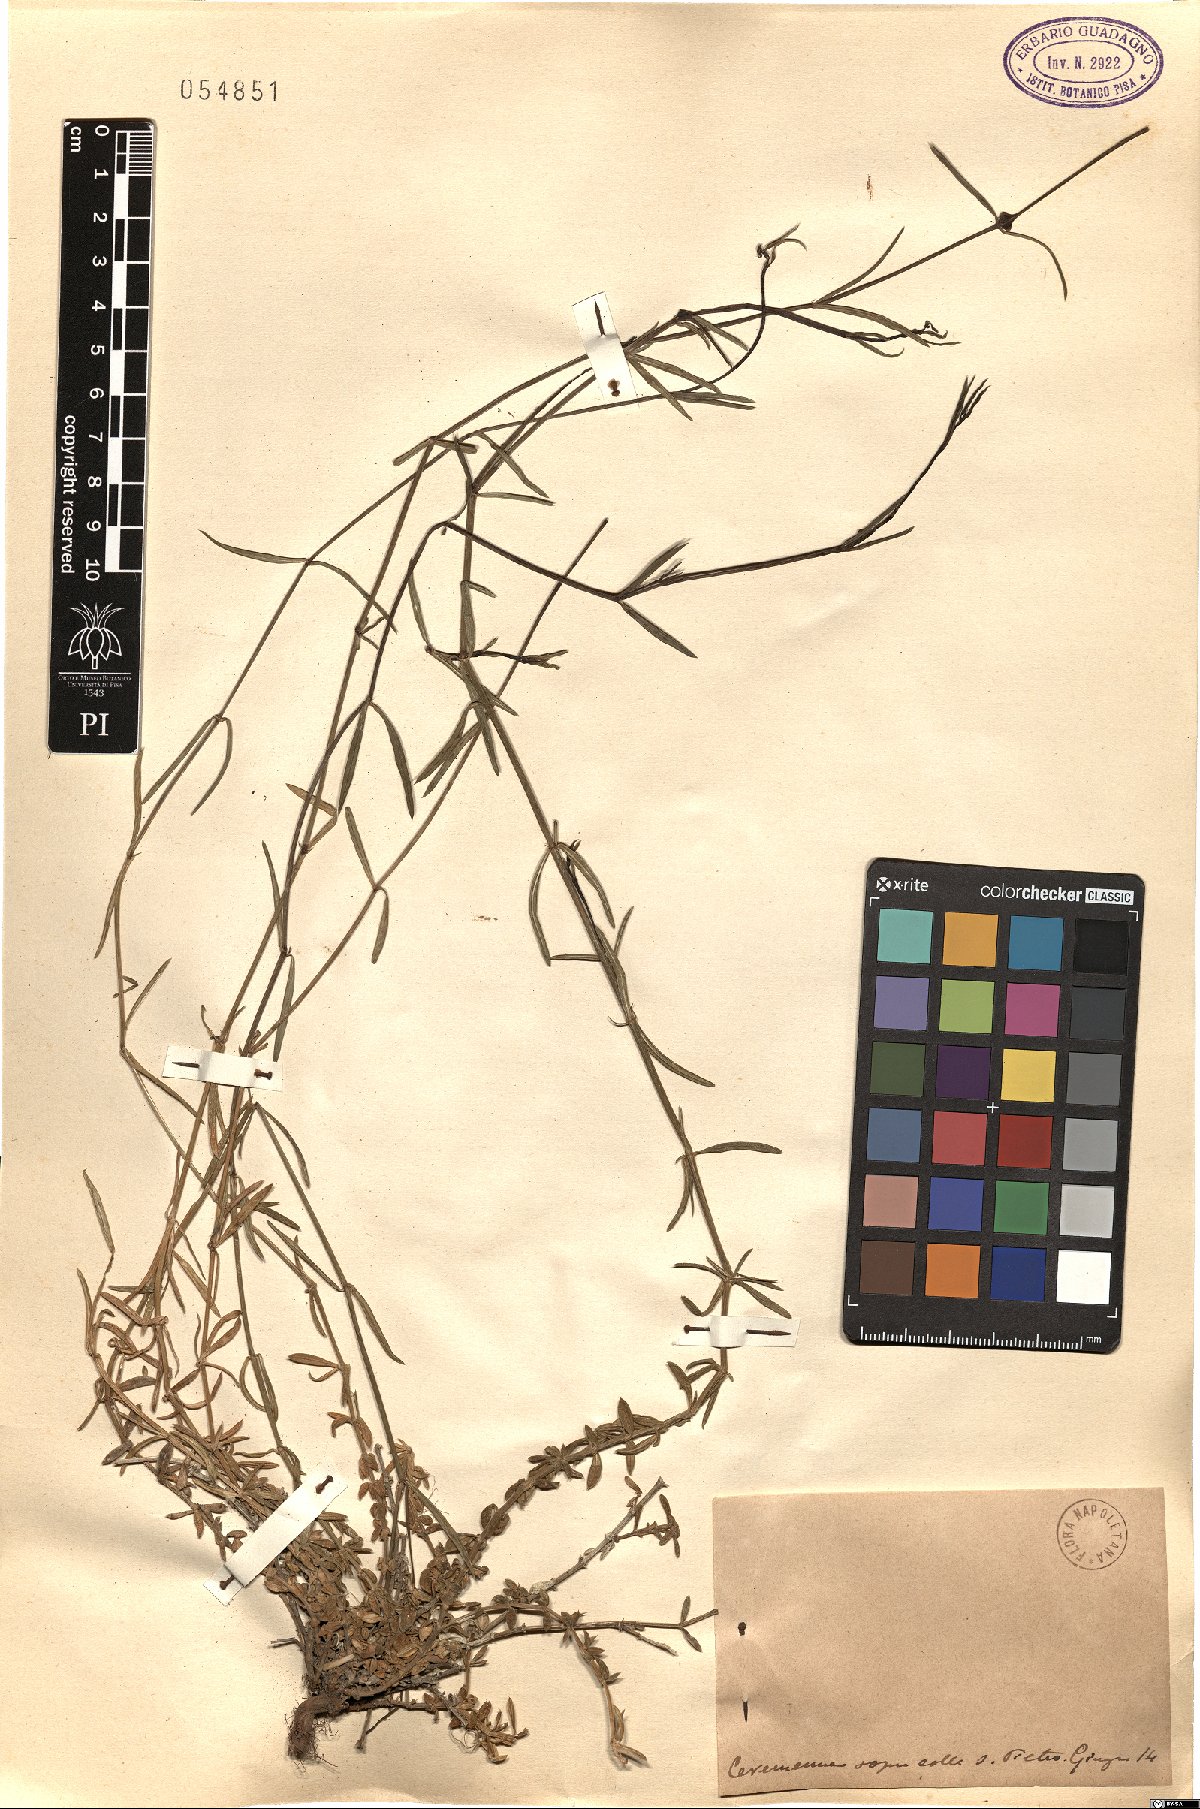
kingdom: Plantae
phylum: Tracheophyta
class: Magnoliopsida
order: Gentianales
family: Rubiaceae
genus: Asperula
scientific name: Asperula
